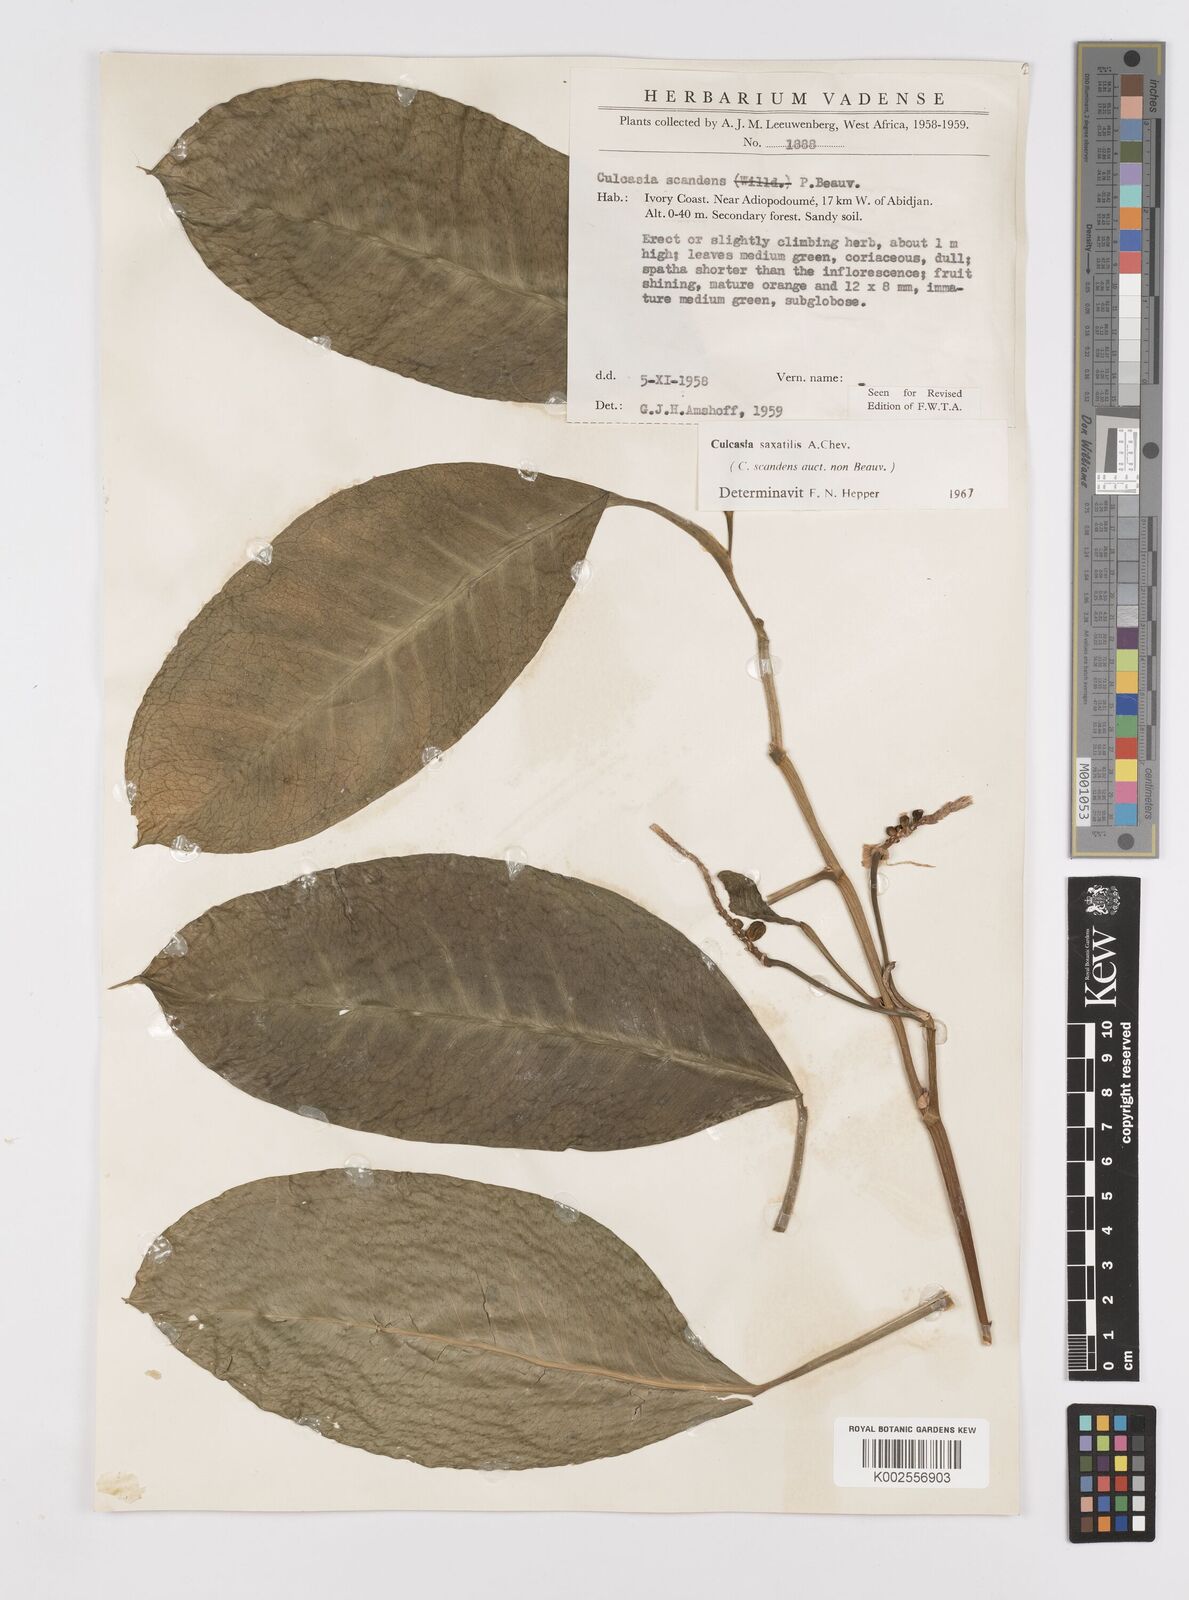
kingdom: Plantae
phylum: Tracheophyta
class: Liliopsida
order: Alismatales
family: Araceae
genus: Culcasia
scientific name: Culcasia scandens
